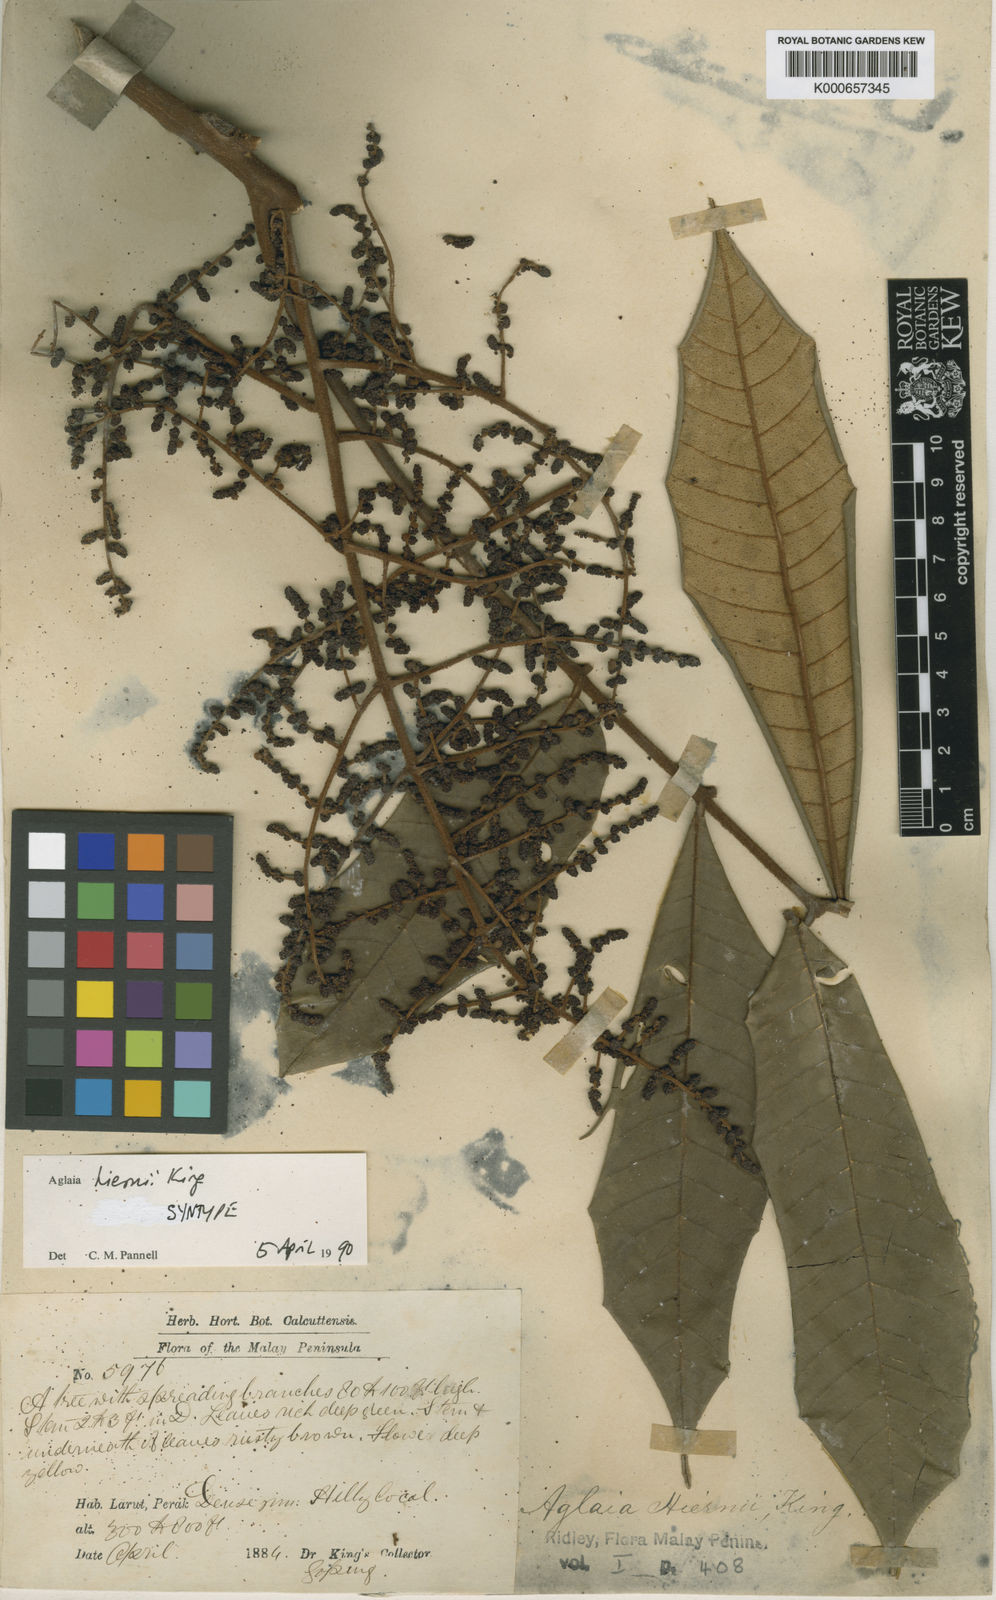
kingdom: Plantae
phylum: Tracheophyta
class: Magnoliopsida
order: Sapindales
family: Meliaceae
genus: Aglaia
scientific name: Aglaia hiernii
